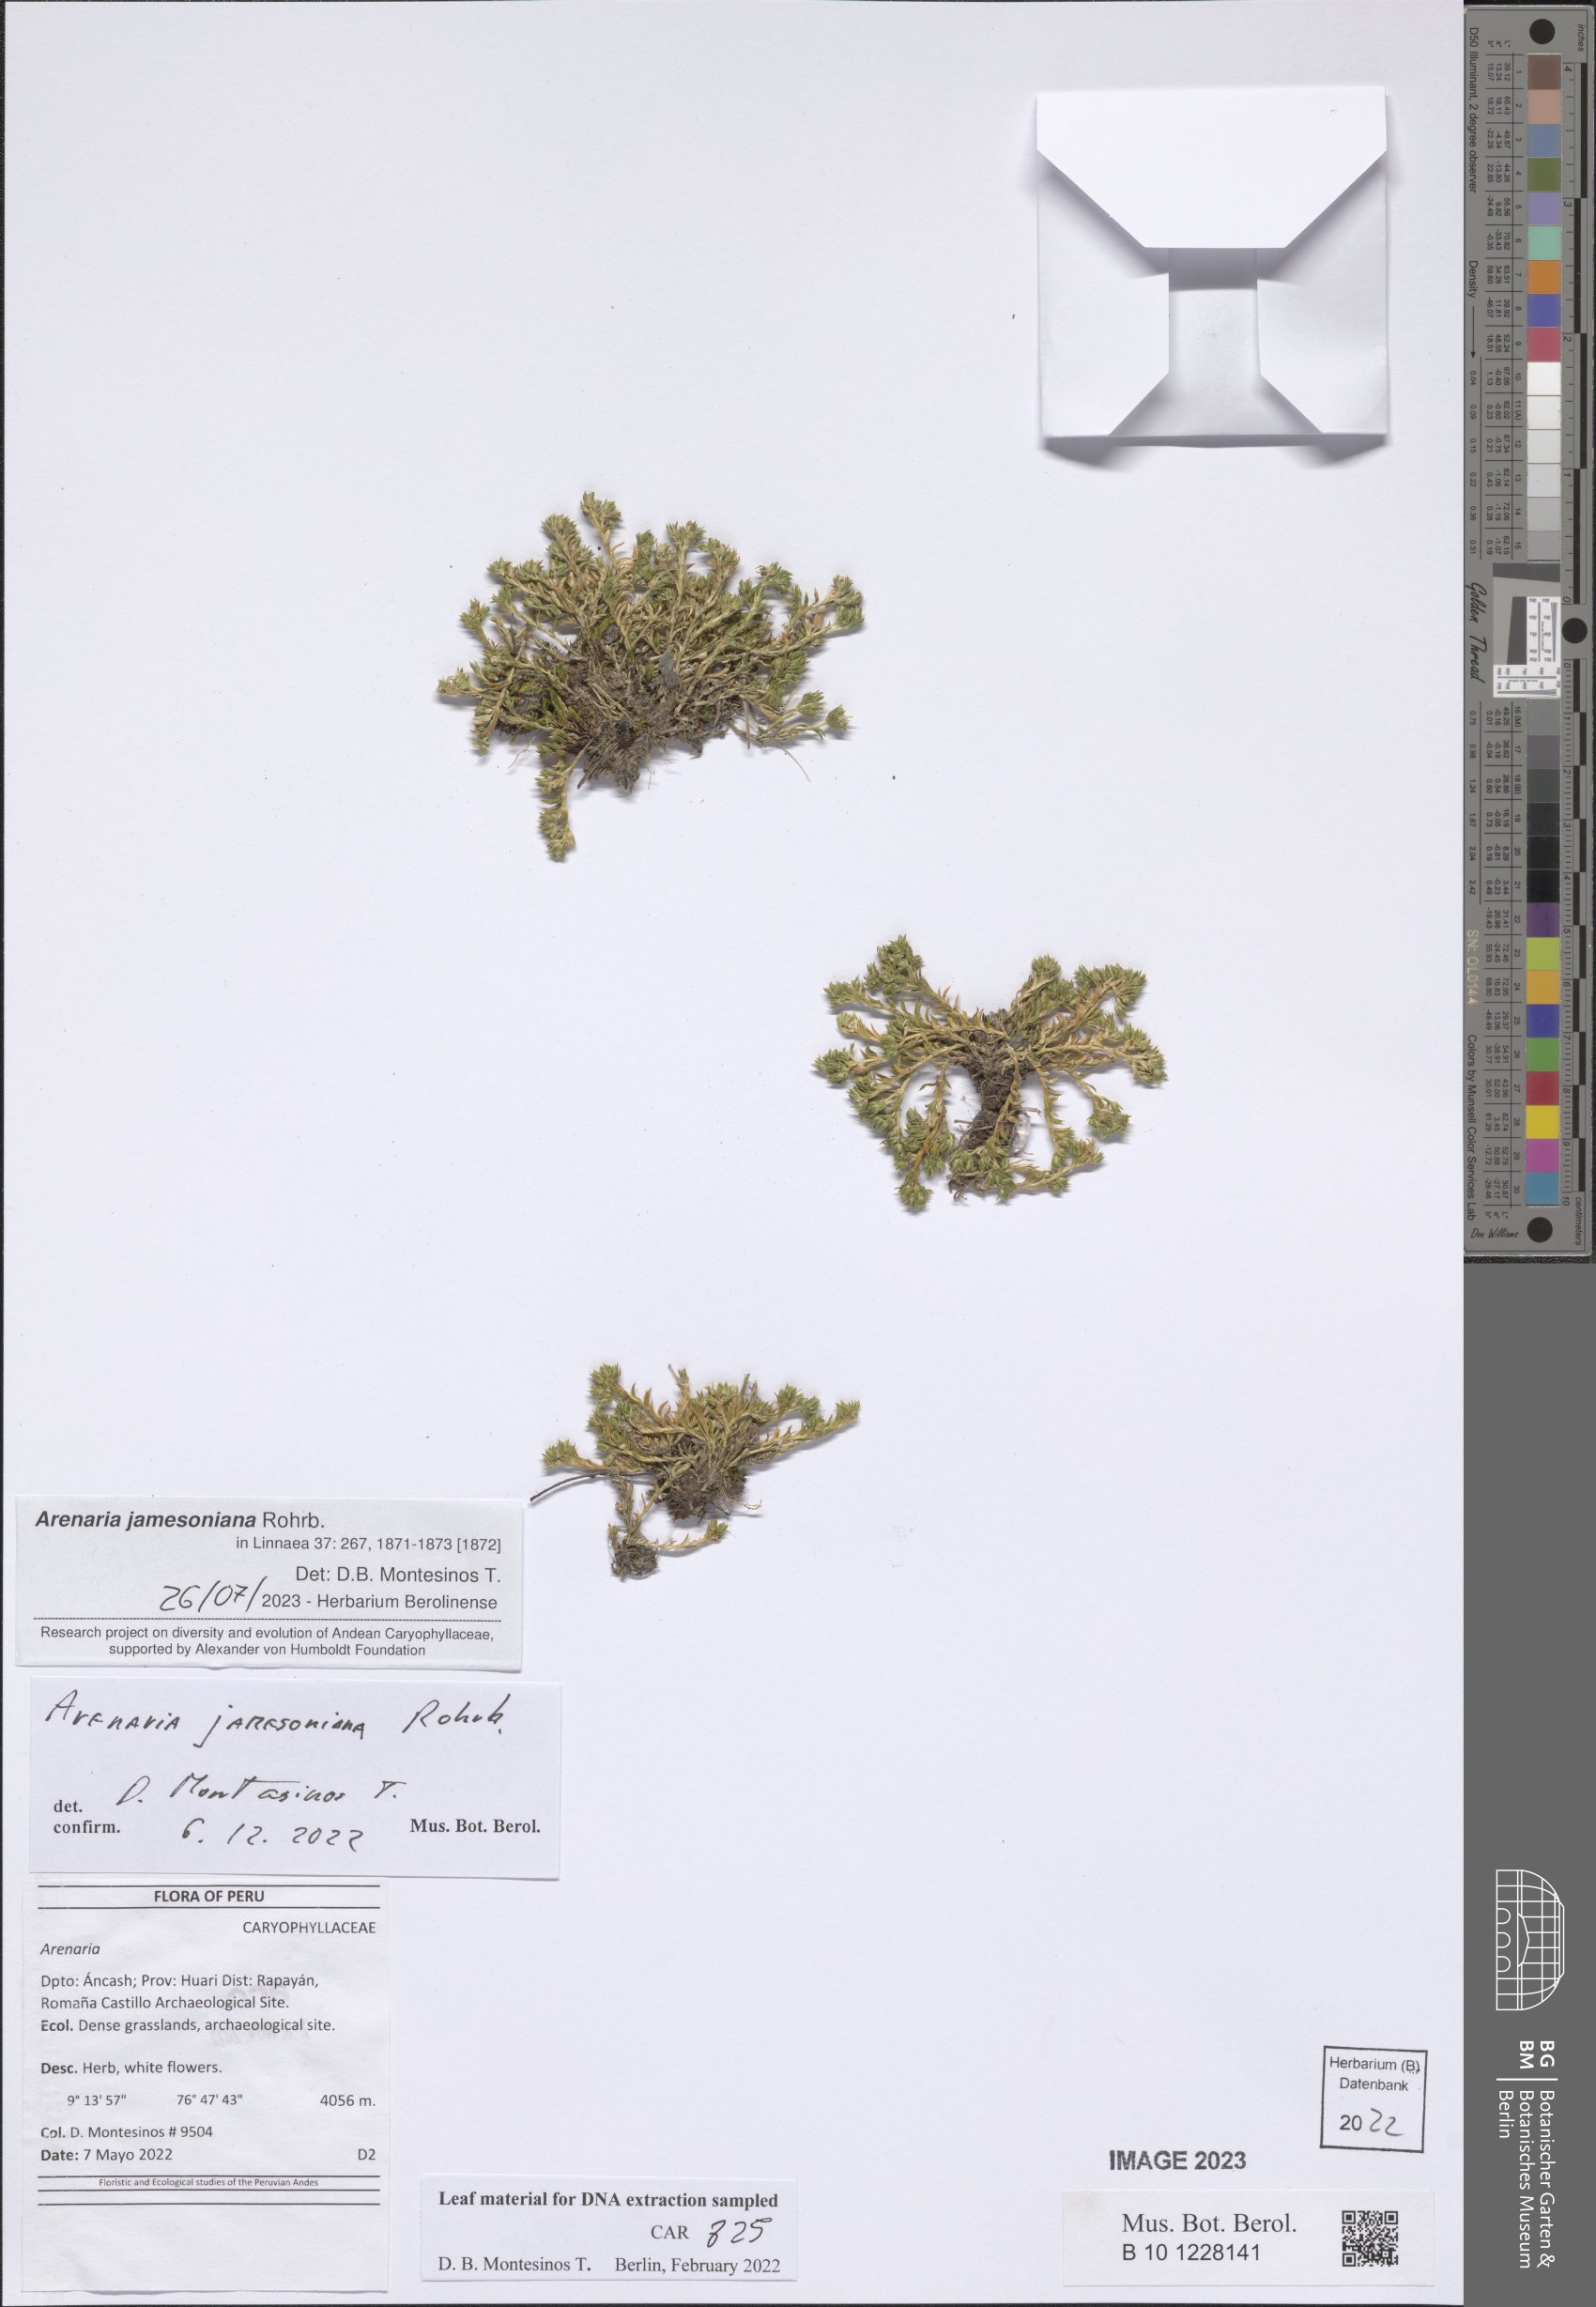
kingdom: Plantae
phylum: Tracheophyta
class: Magnoliopsida
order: Caryophyllales
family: Caryophyllaceae
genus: Arenaria
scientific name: Arenaria
